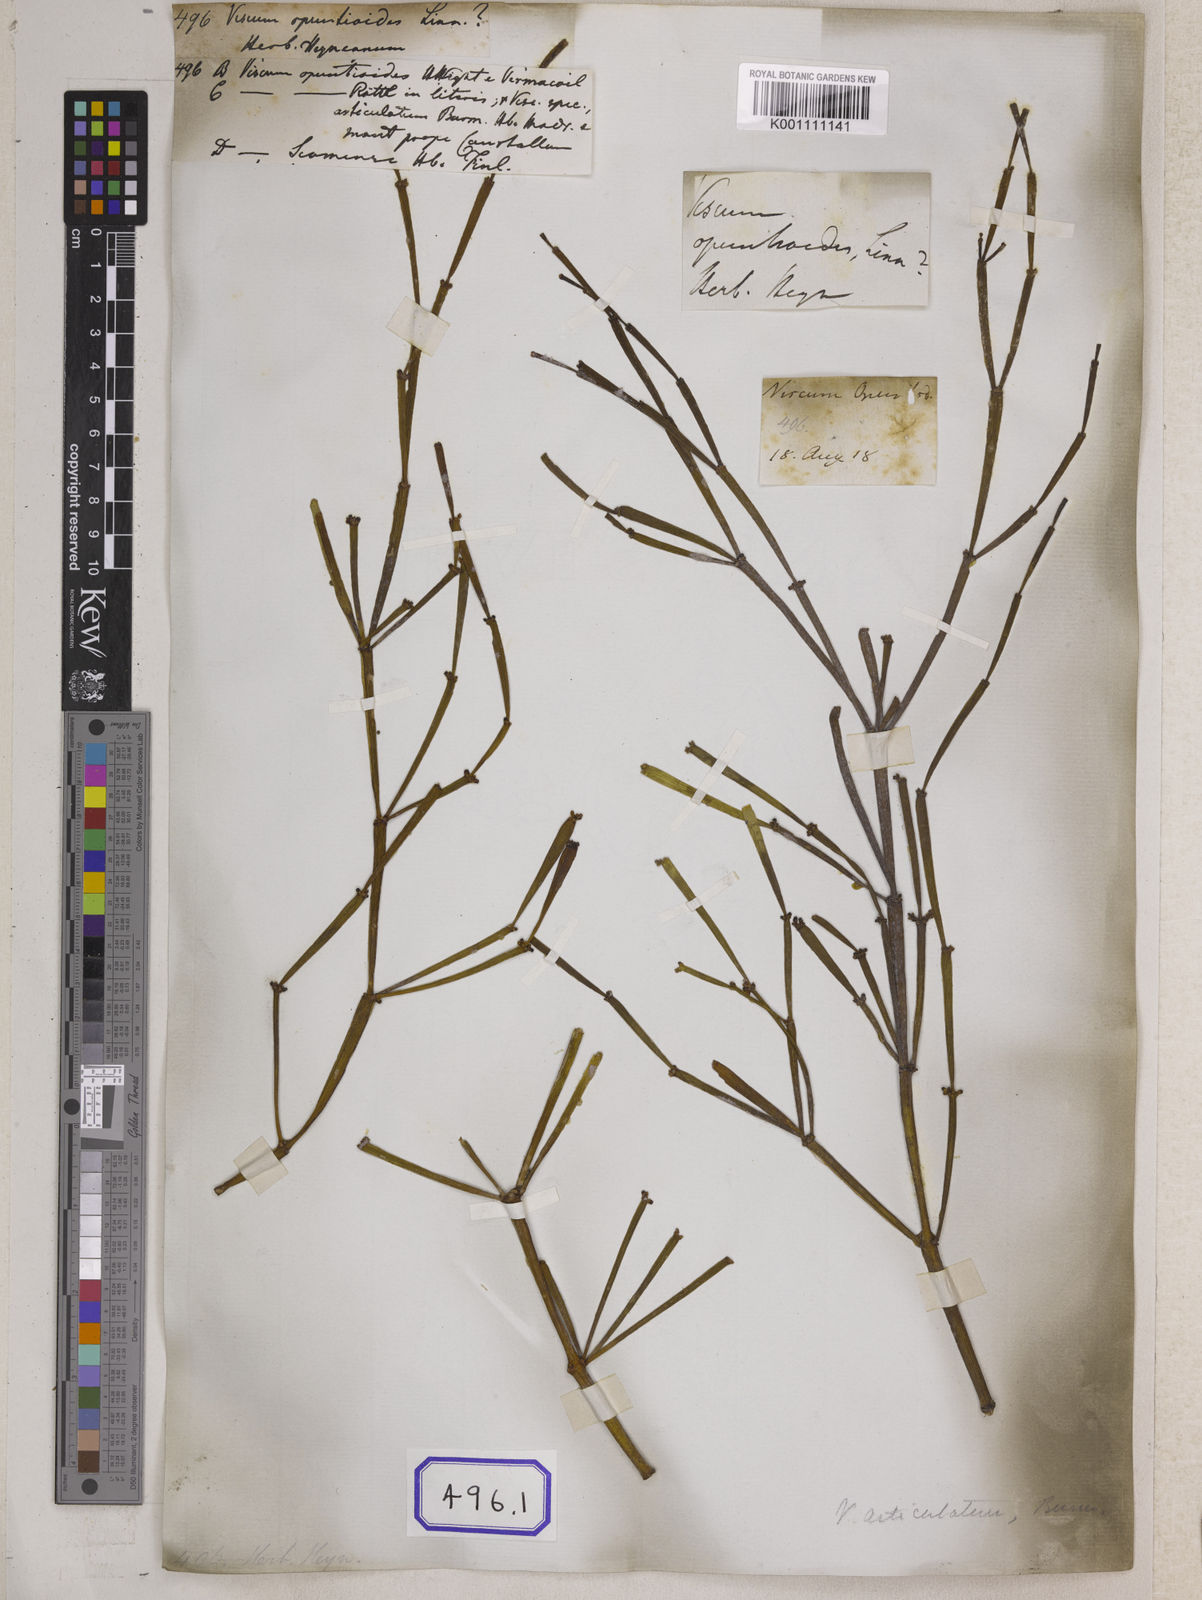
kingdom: Plantae
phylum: Tracheophyta
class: Magnoliopsida
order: Santalales
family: Viscaceae
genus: Dendrophthora
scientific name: Dendrophthora opuntioides
